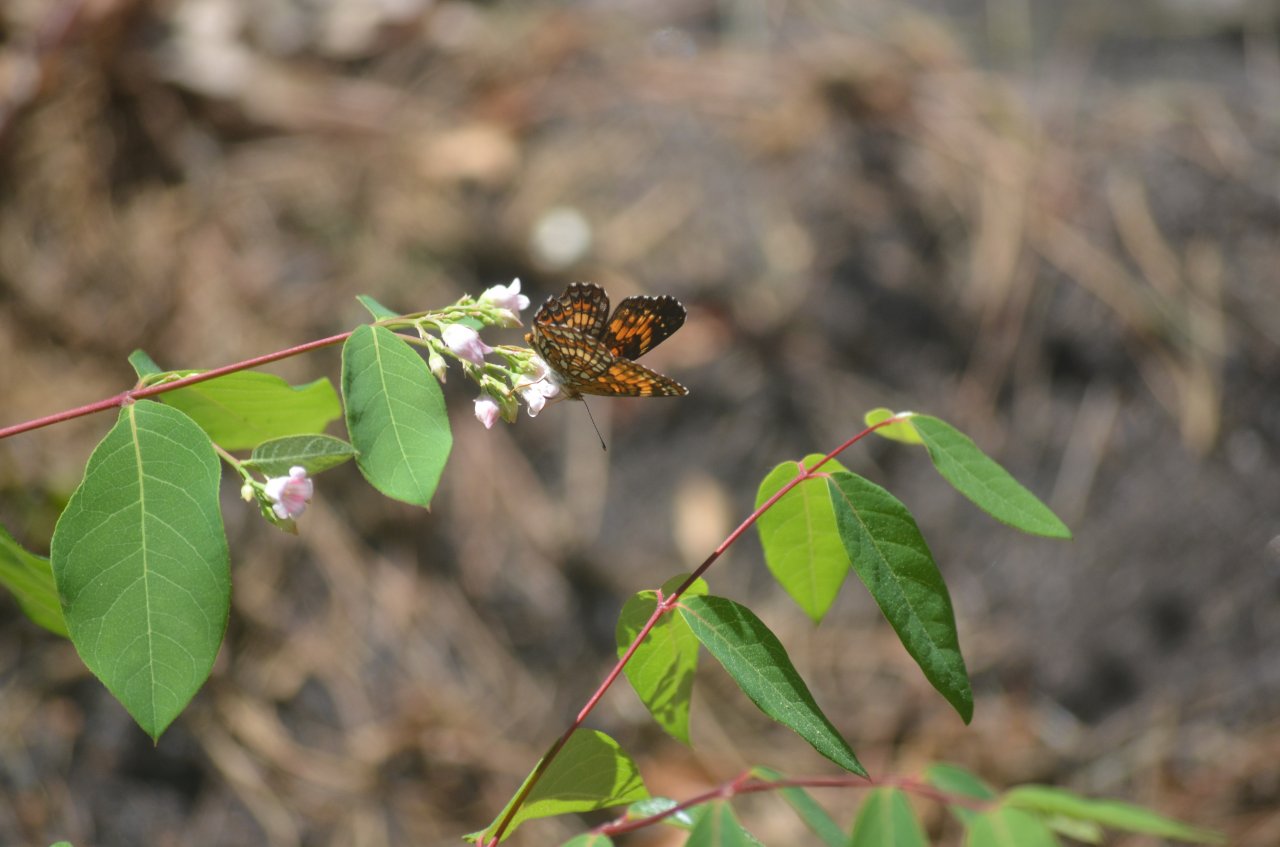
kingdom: Animalia
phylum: Arthropoda
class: Insecta
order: Lepidoptera
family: Nymphalidae
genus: Chlosyne
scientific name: Chlosyne harrisii
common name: Harris's Checkerspot
